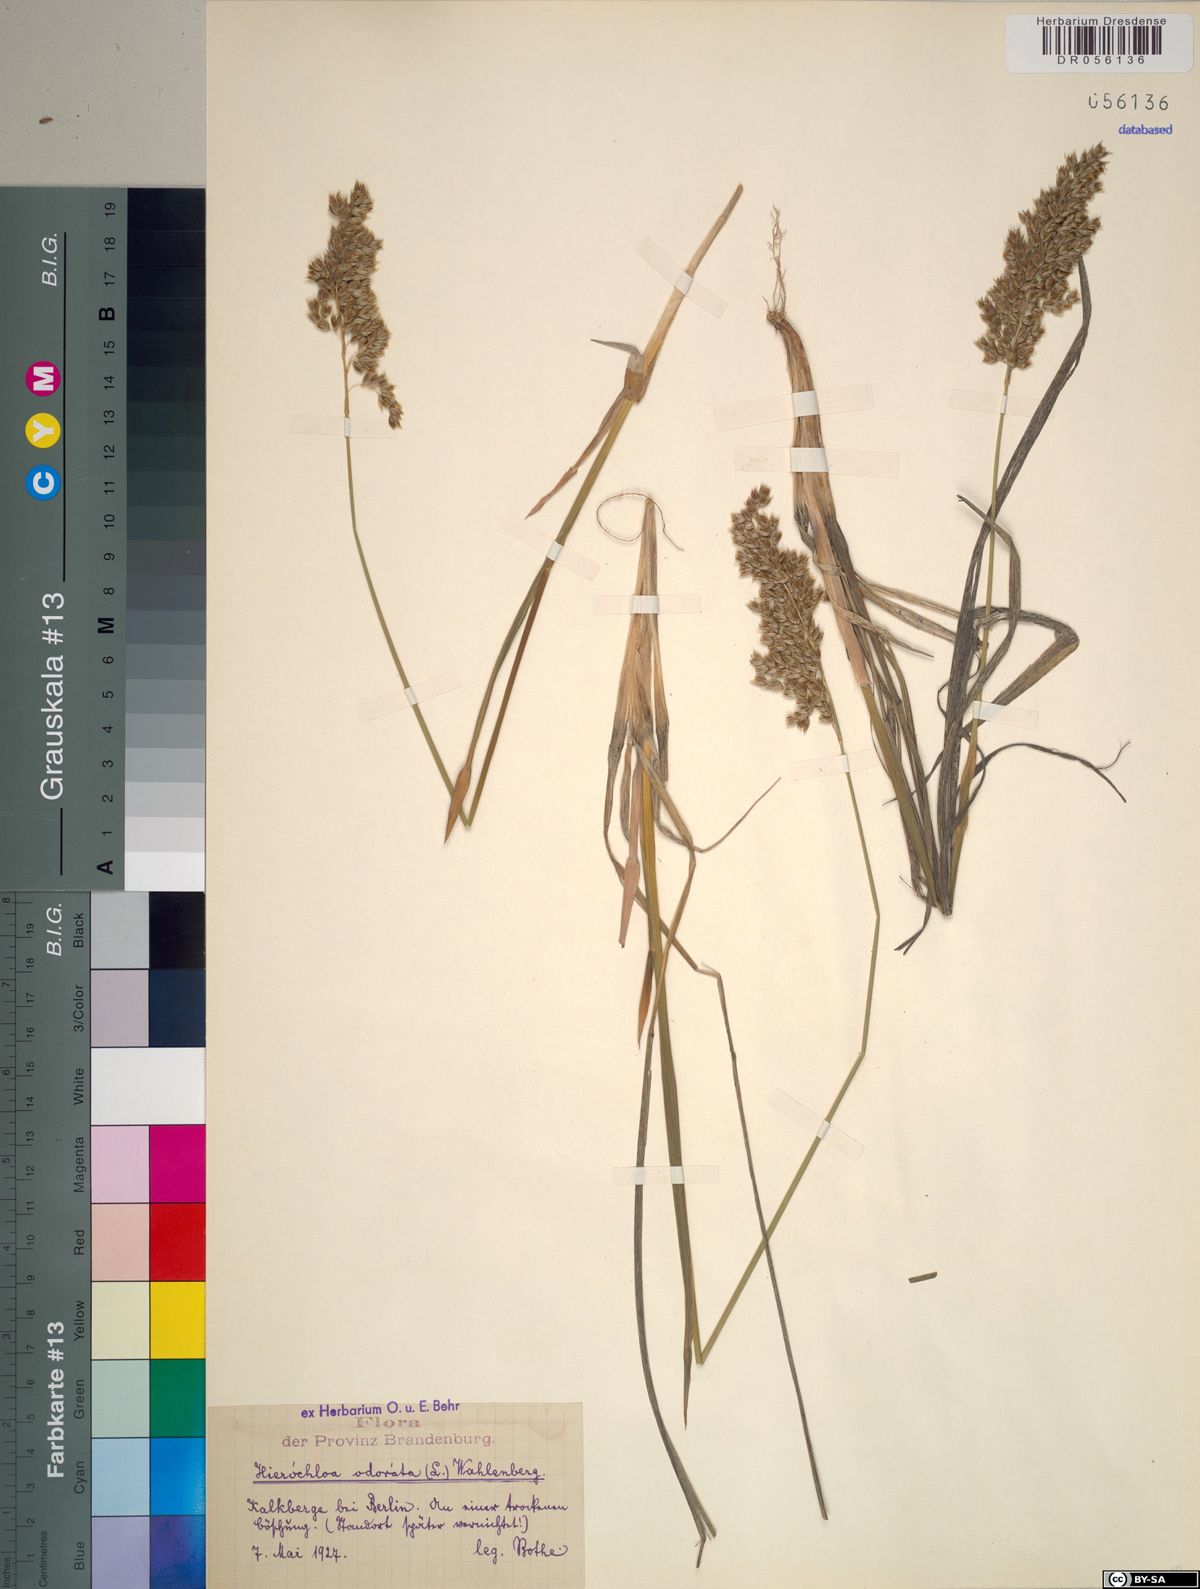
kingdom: Plantae
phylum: Tracheophyta
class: Liliopsida
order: Poales
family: Poaceae
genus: Anthoxanthum
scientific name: Anthoxanthum nitens
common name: Holy grass
